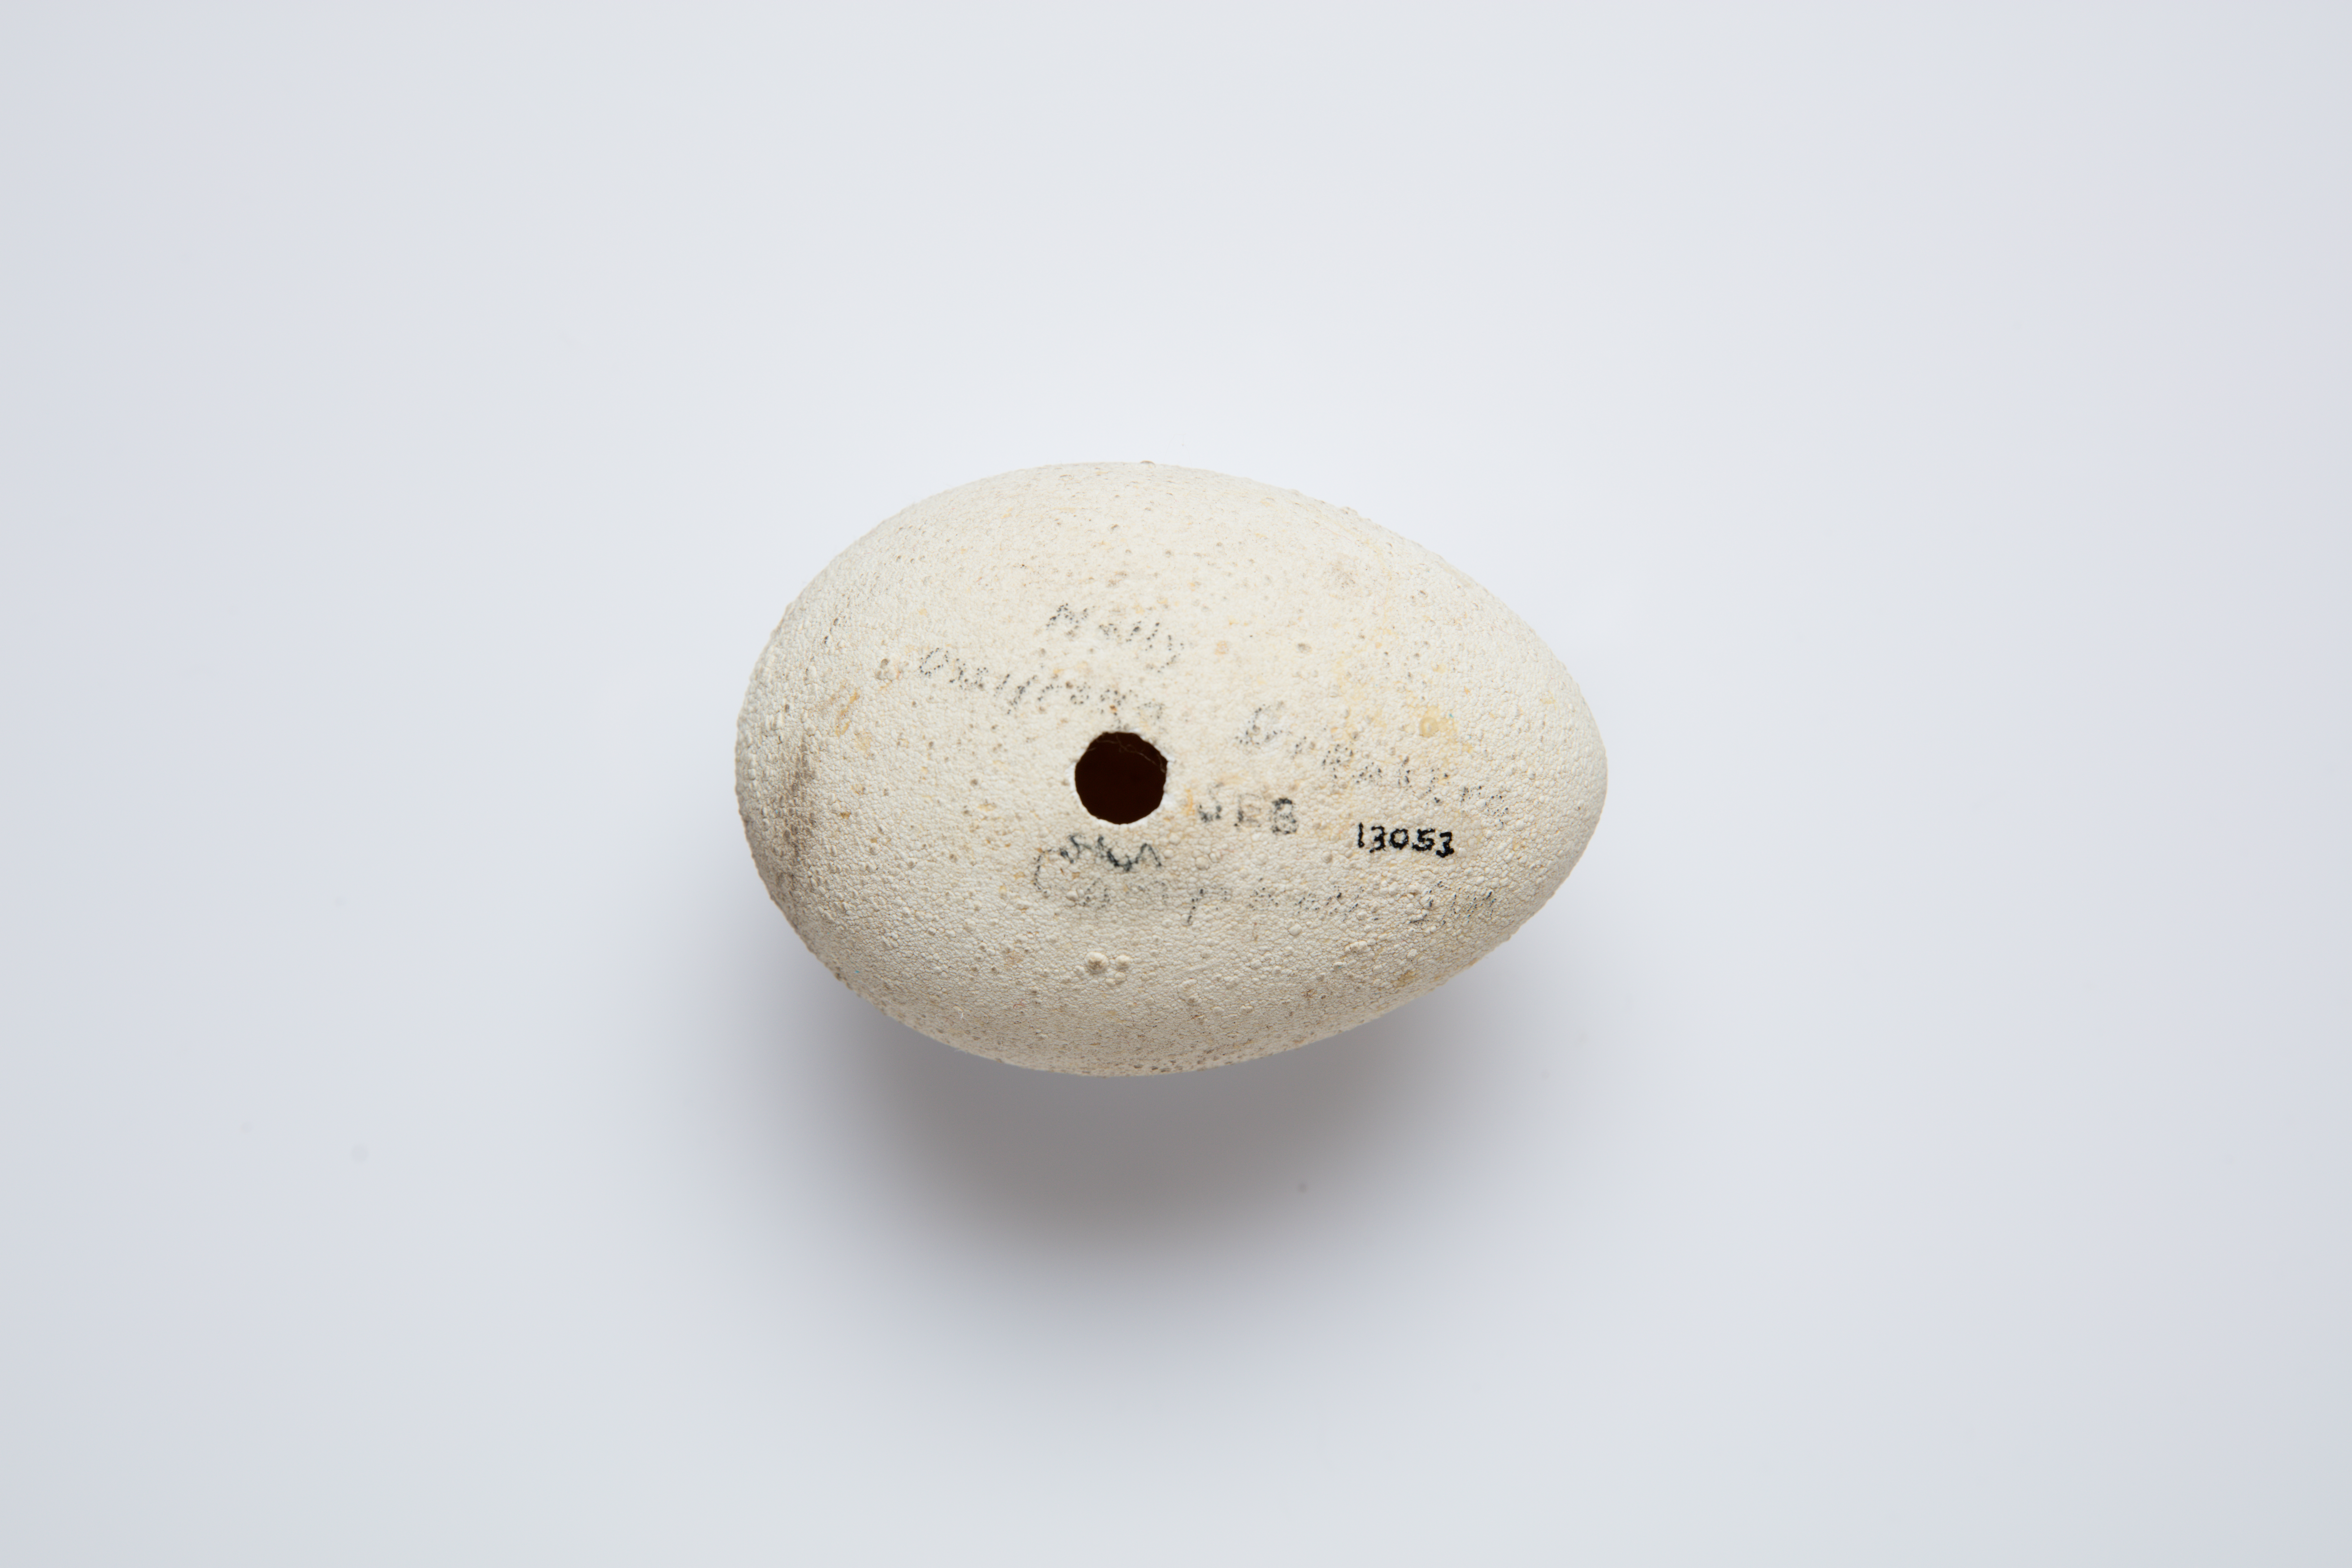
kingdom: Animalia
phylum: Chordata
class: Aves
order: Procellariiformes
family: Procellariidae
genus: Macronectes
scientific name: Macronectes halli
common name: Northern giant petrel
